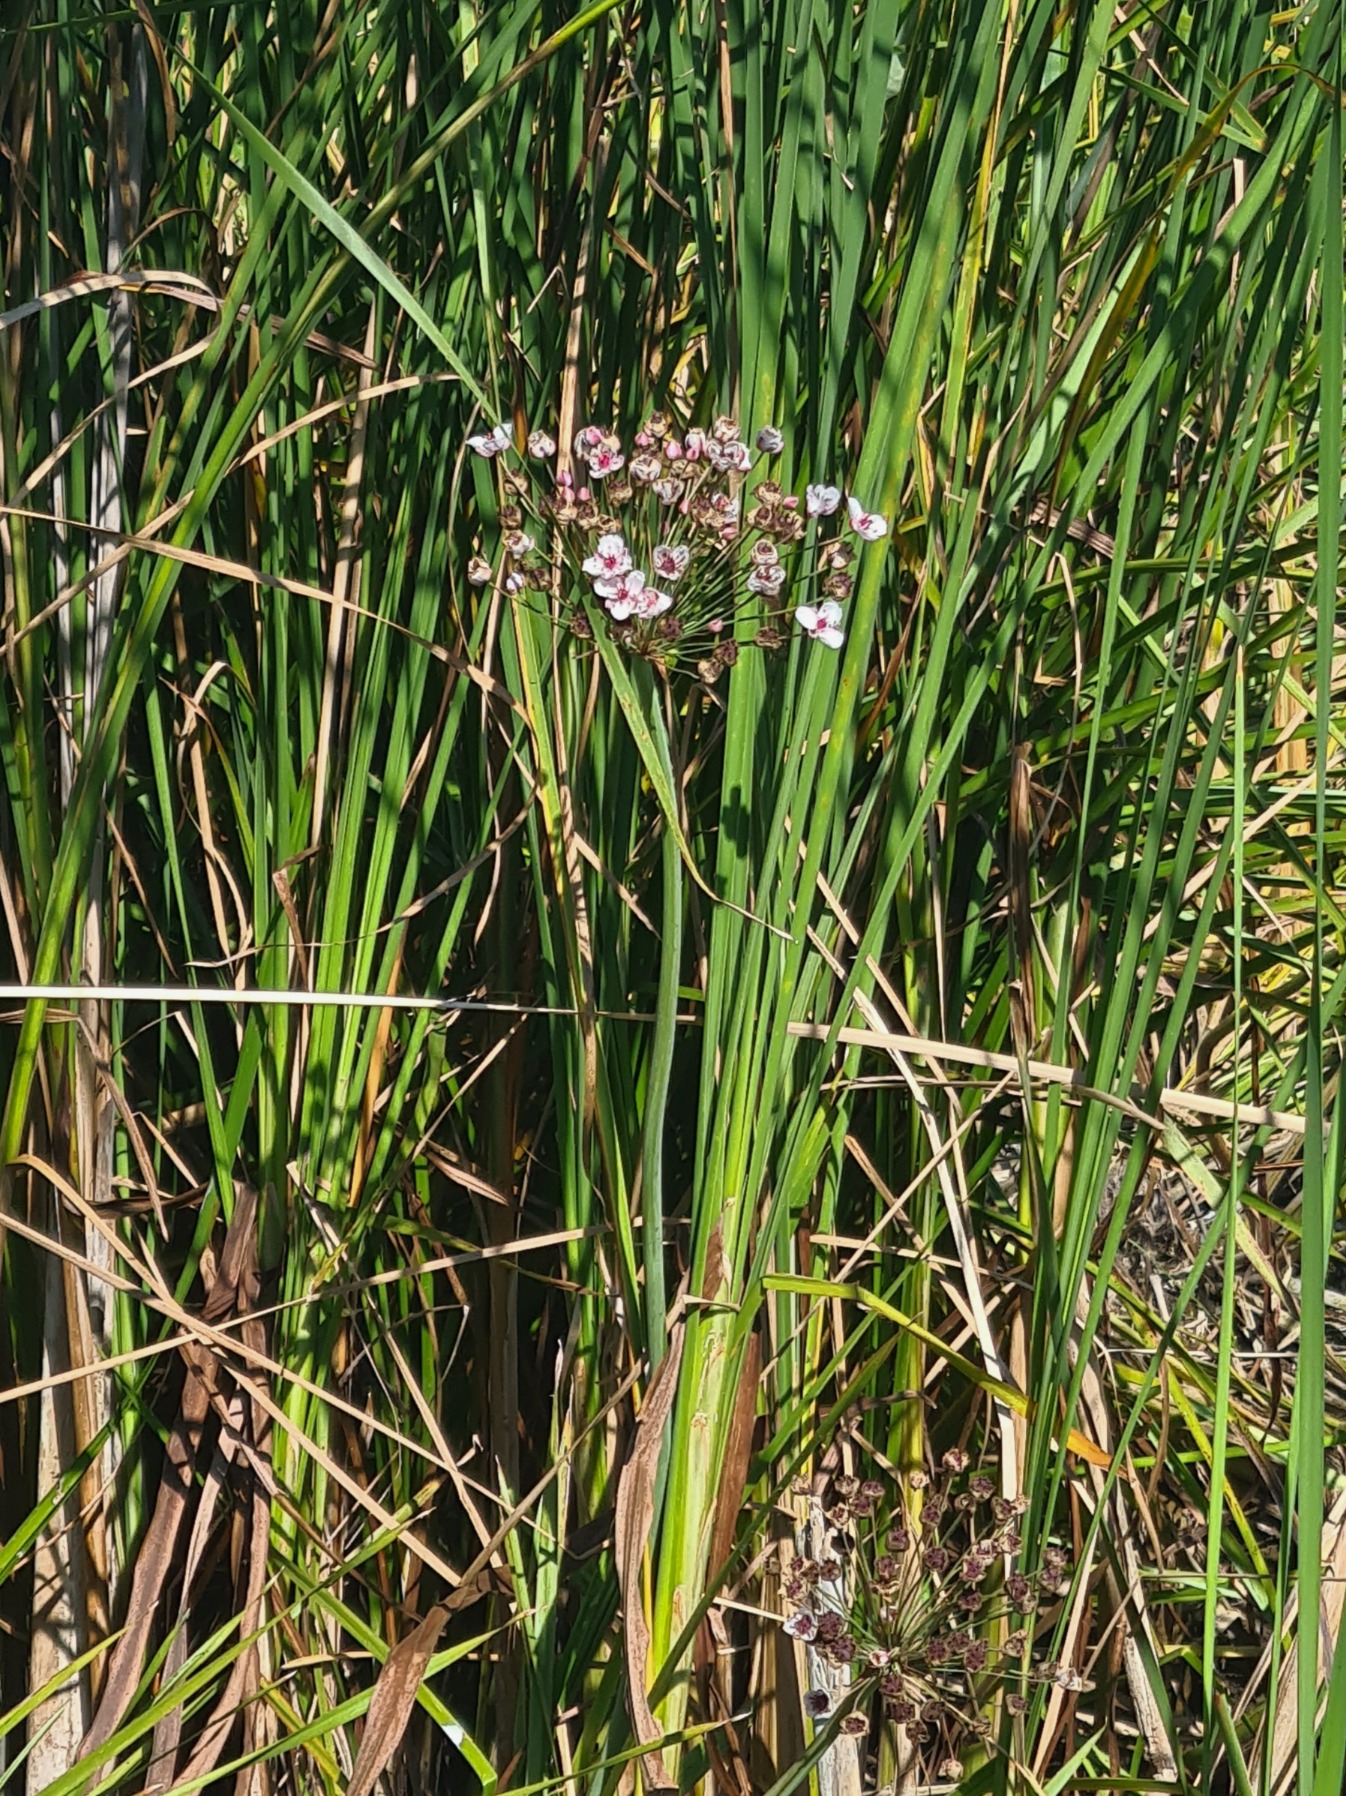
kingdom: Plantae
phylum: Tracheophyta
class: Liliopsida
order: Alismatales
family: Butomaceae
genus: Butomus
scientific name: Butomus umbellatus
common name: Brudelys
